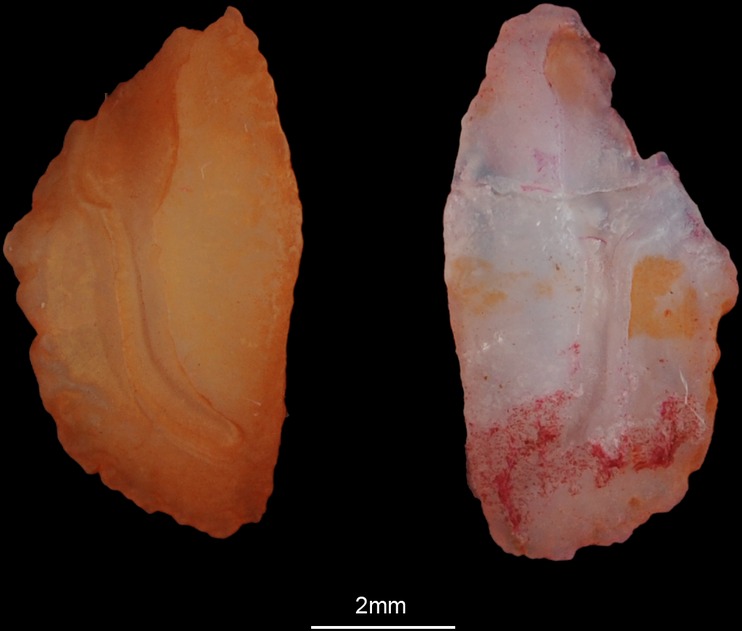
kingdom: Animalia
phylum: Chordata
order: Perciformes
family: Sparidae
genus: Crenidens
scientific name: Crenidens crenidens
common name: Karenteen seabream
